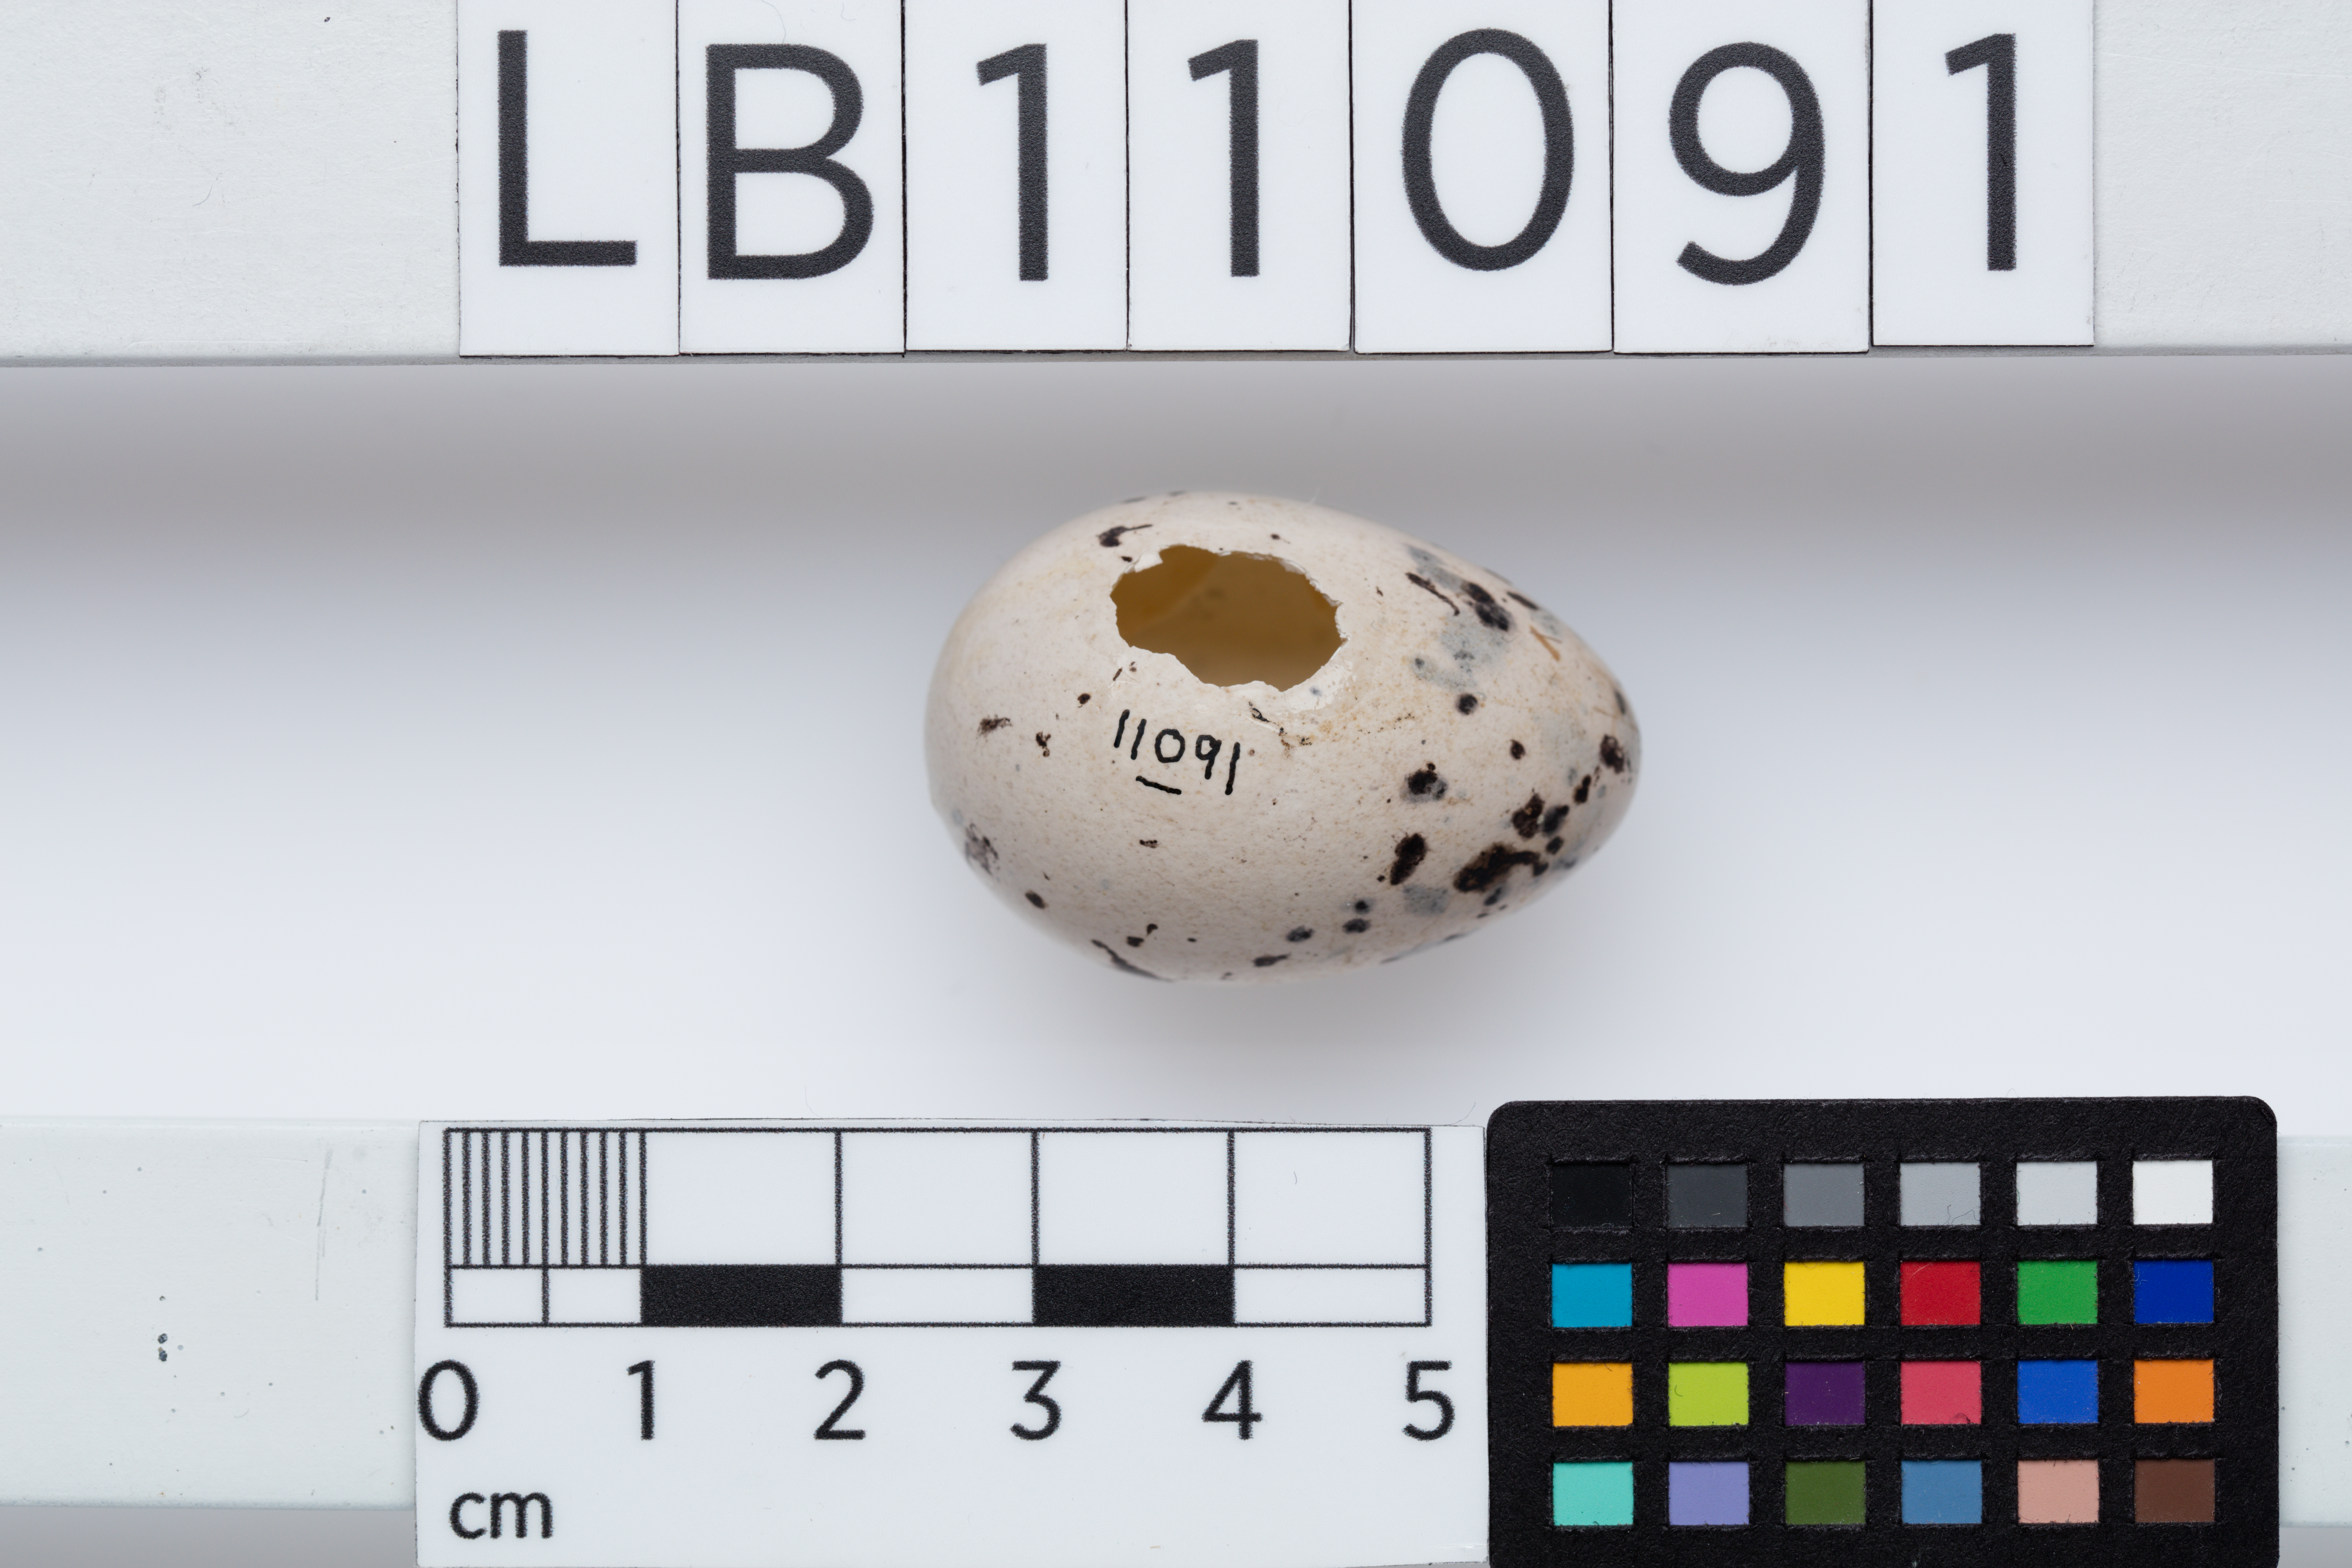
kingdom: Animalia
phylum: Chordata
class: Aves
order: Passeriformes
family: Callaeatidae
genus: Callaeas
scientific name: Callaeas cinereus
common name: South island kokako
